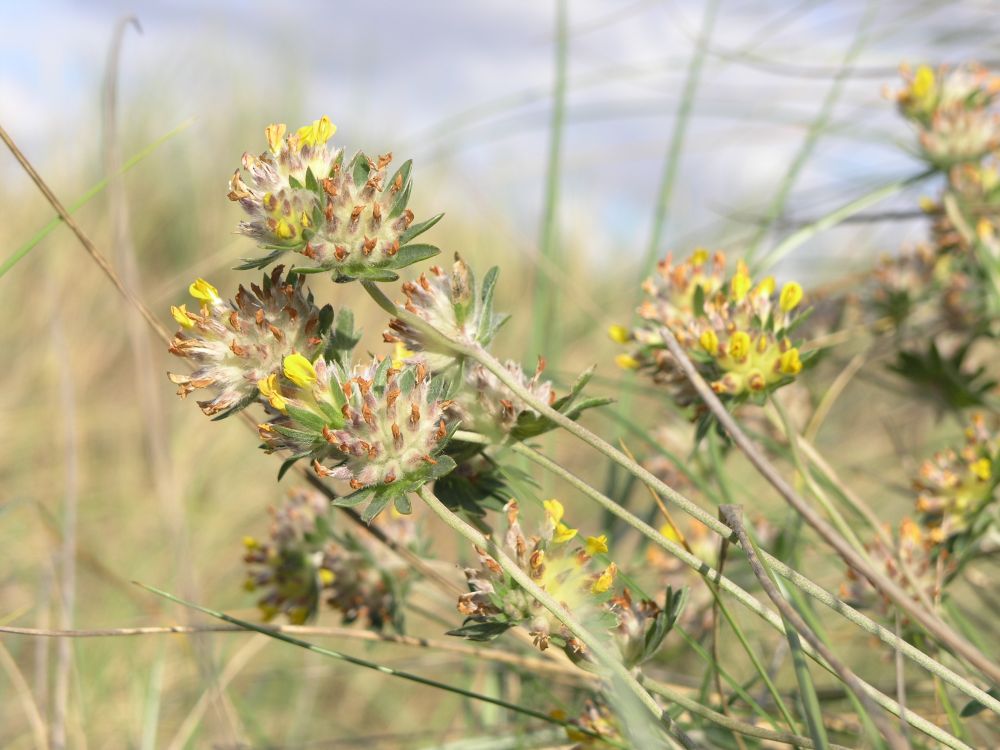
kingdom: Plantae
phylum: Tracheophyta
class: Magnoliopsida
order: Fabales
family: Fabaceae
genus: Anthyllis
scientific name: Anthyllis vulneraria
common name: Kidney vetch
